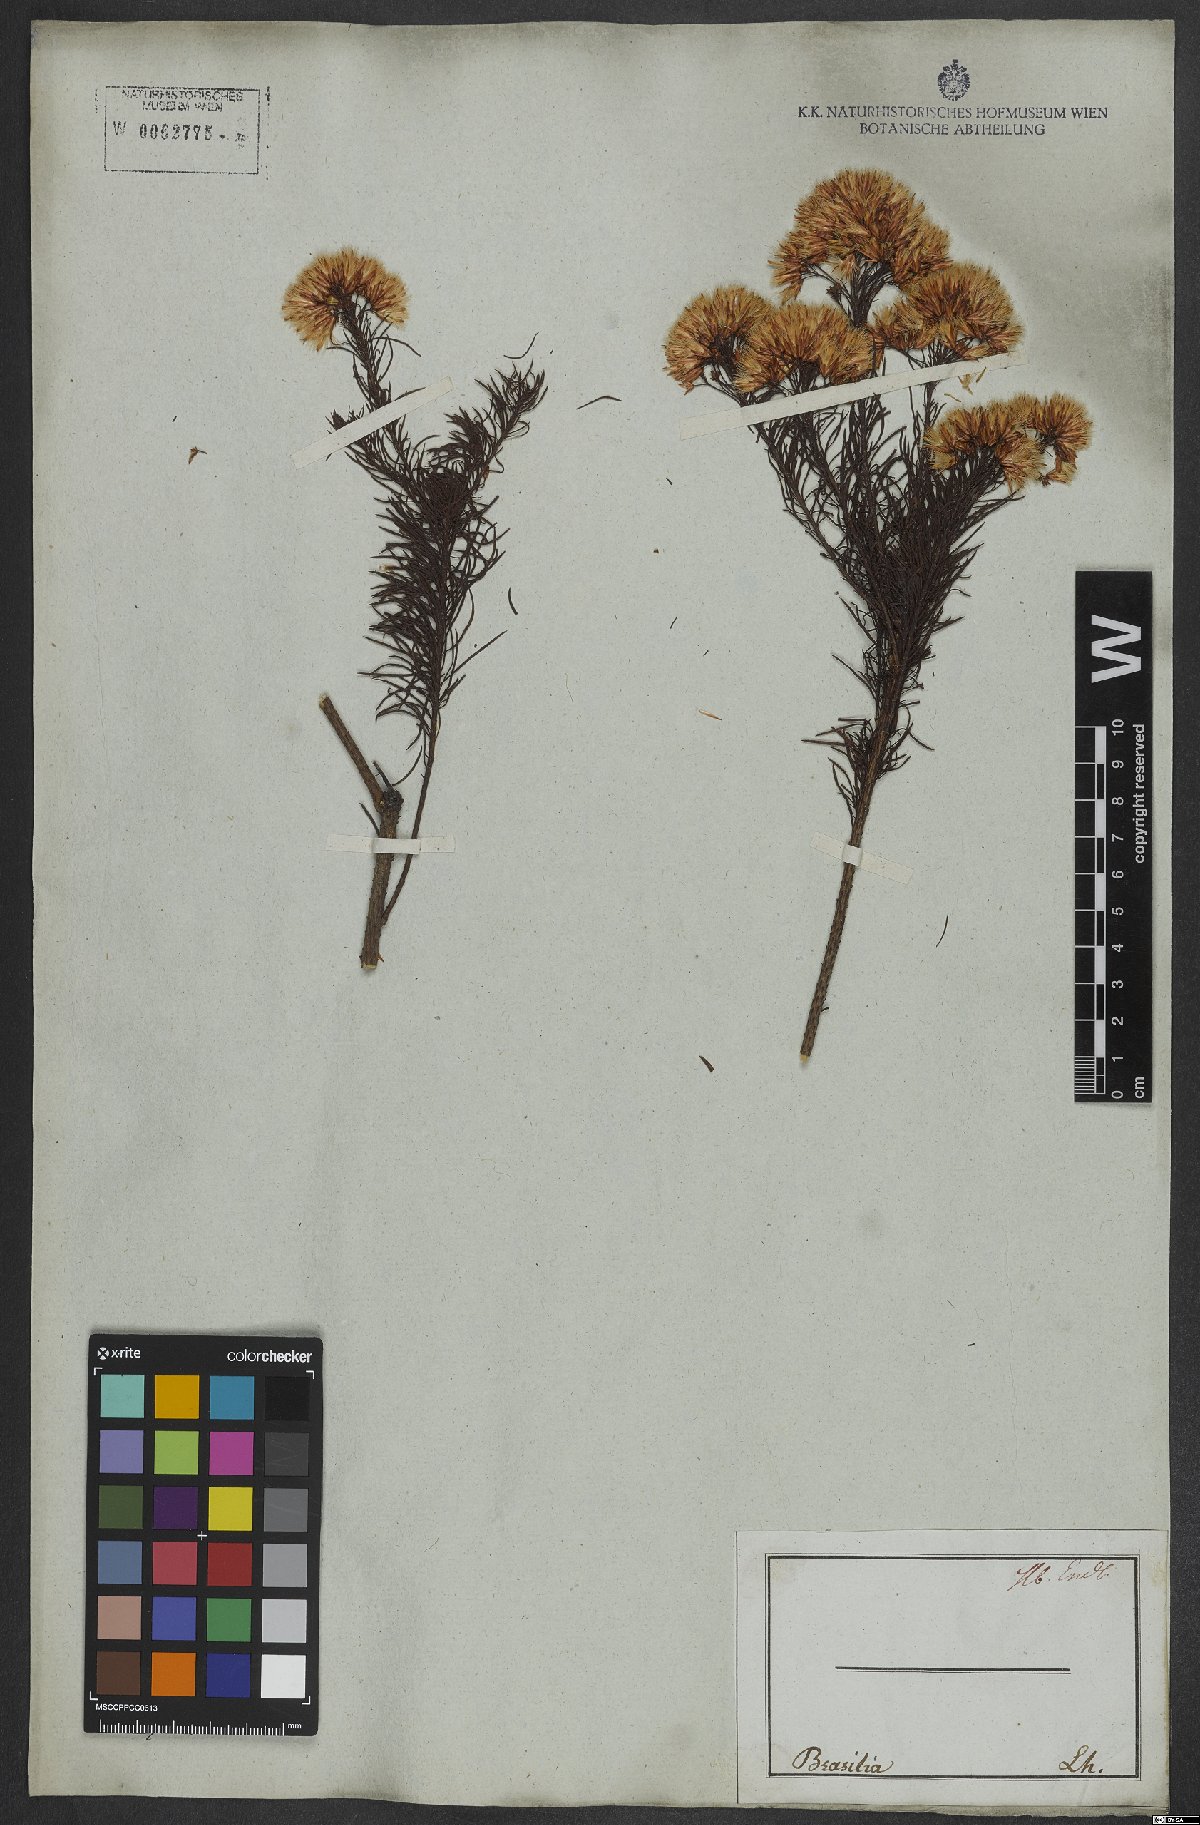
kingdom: Plantae
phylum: Tracheophyta
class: Magnoliopsida
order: Asterales
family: Asteraceae
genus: Pseudobrickellia
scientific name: Pseudobrickellia brasiliensis
